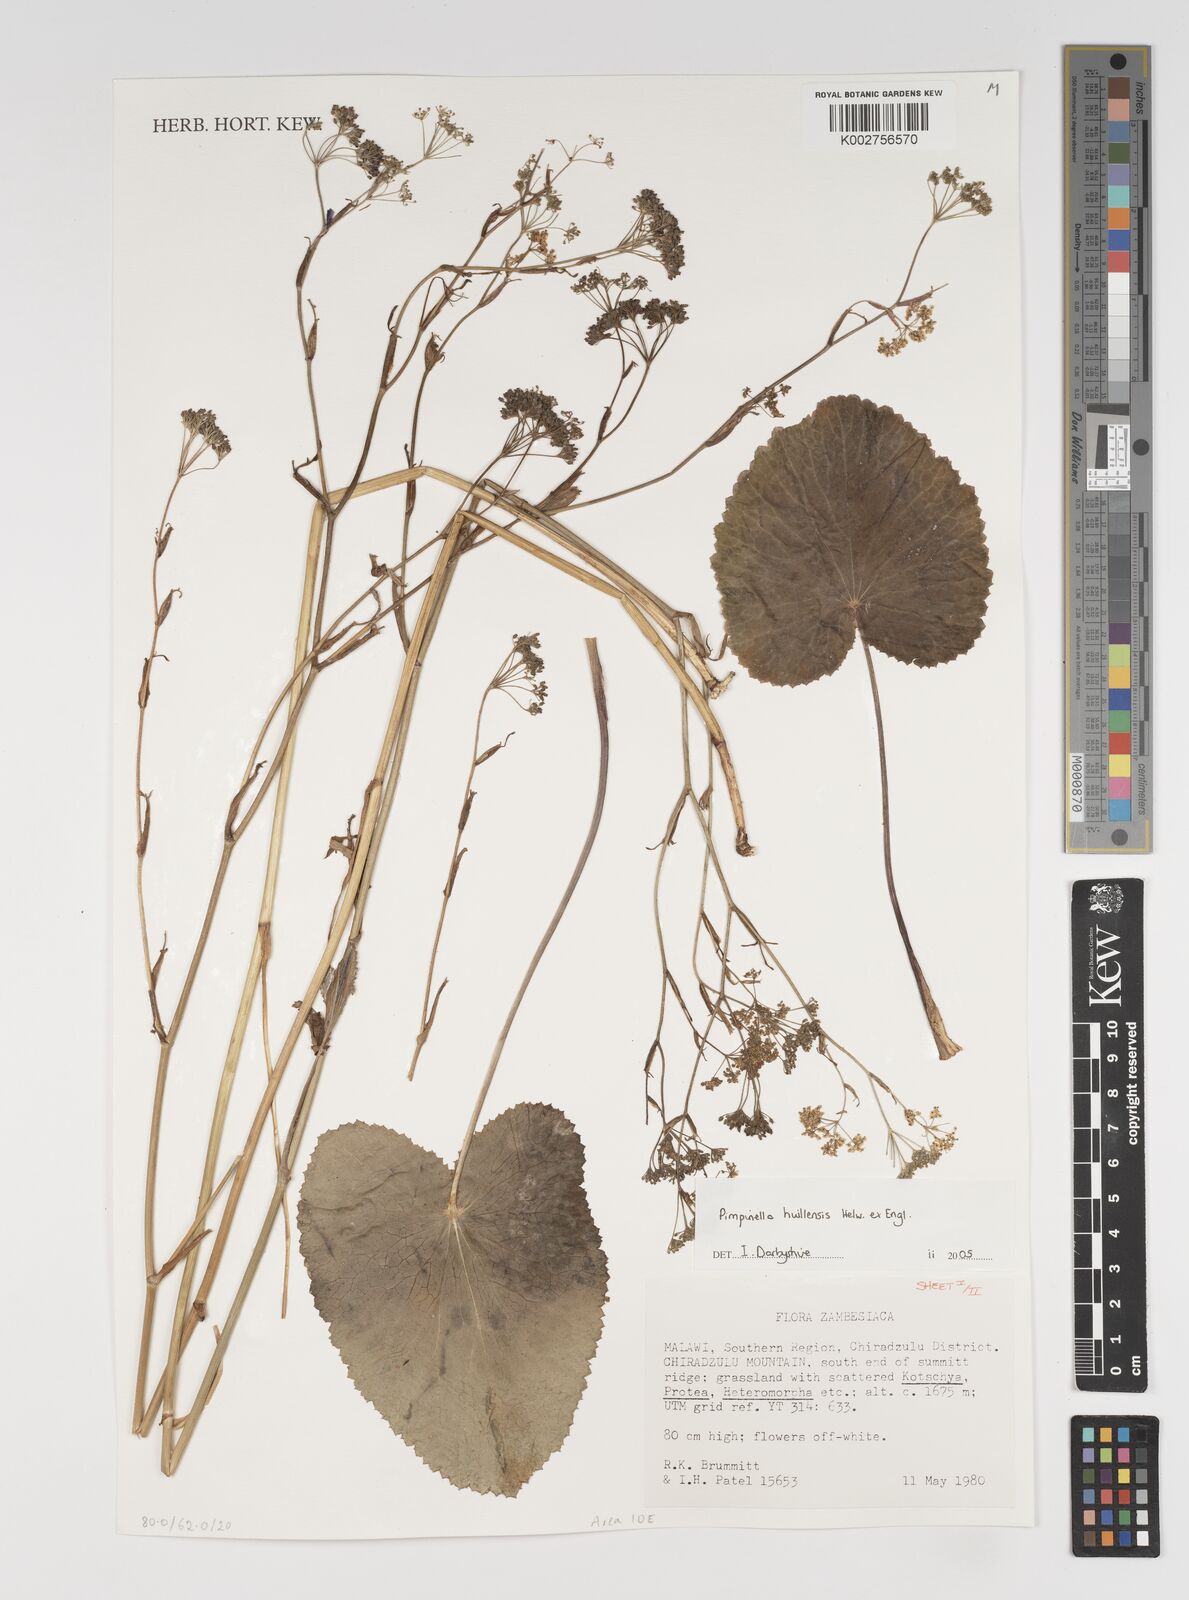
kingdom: Plantae
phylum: Tracheophyta
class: Magnoliopsida
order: Apiales
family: Apiaceae
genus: Pimpinella
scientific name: Pimpinella huillensis
